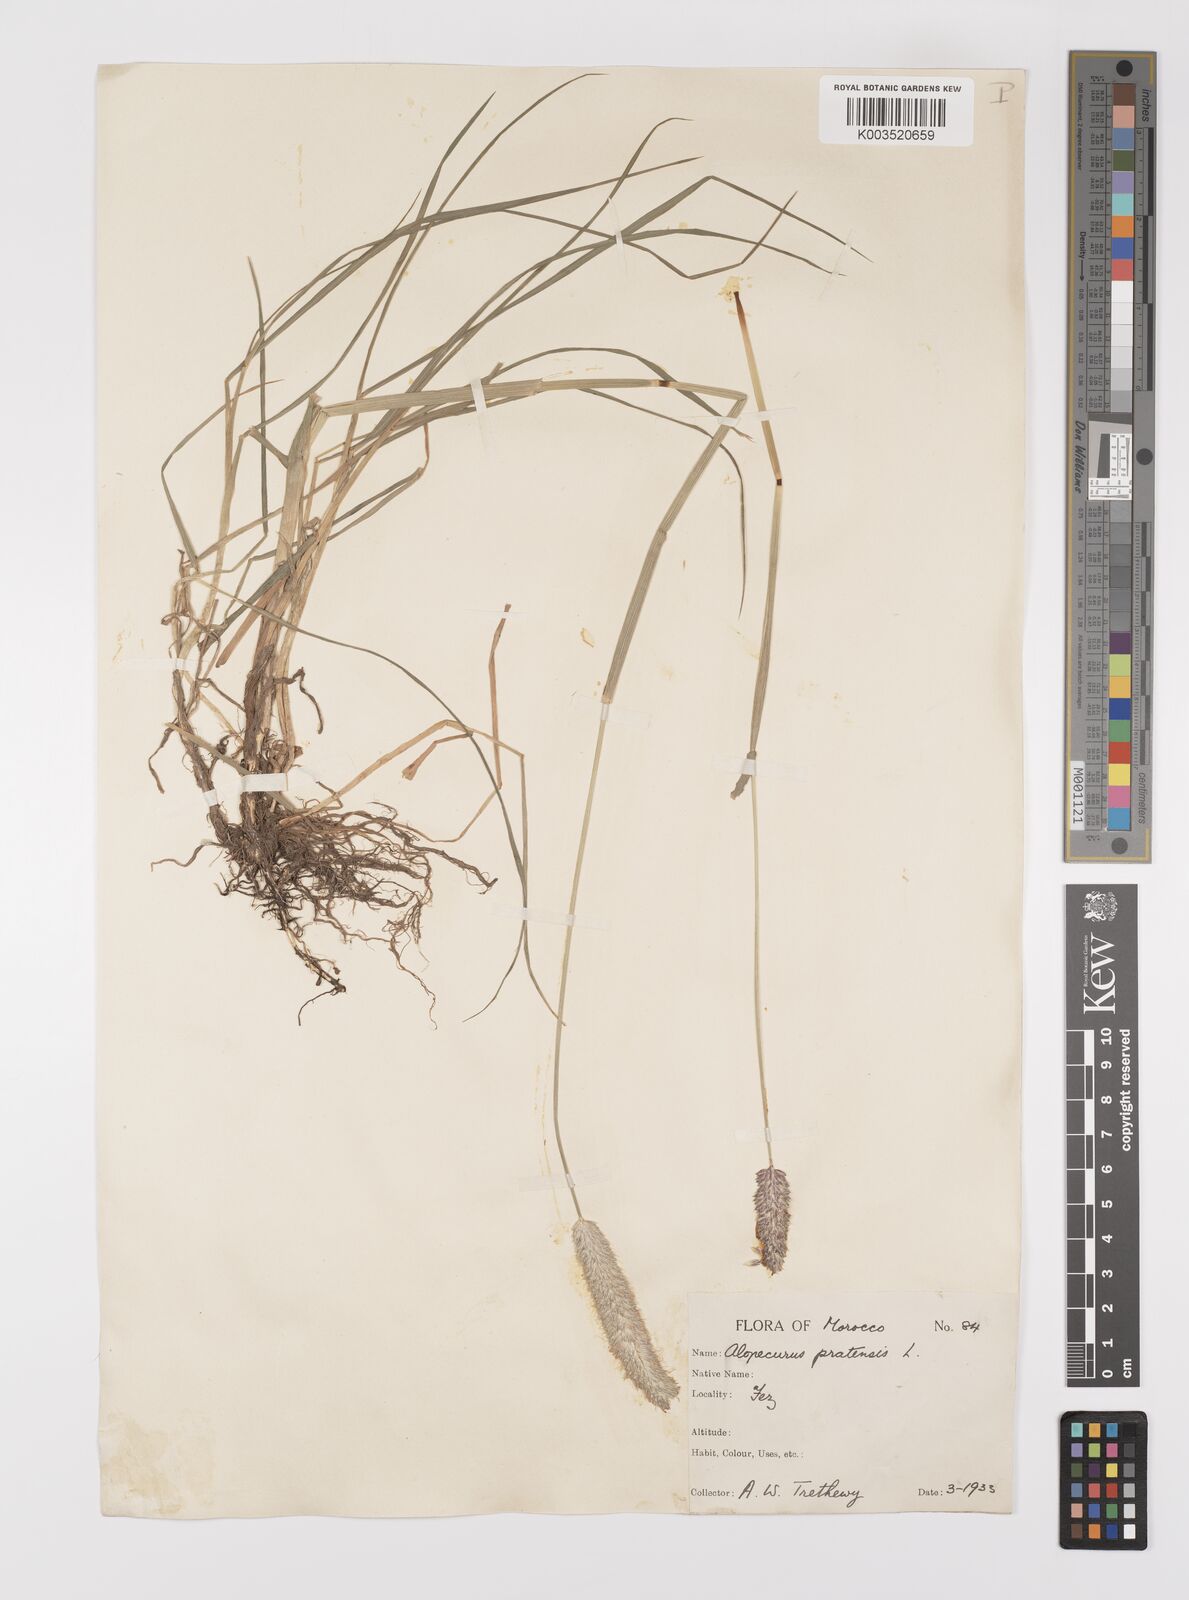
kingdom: Plantae
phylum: Tracheophyta
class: Liliopsida
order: Poales
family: Poaceae
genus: Alopecurus
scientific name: Alopecurus pratensis
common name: Meadow foxtail
